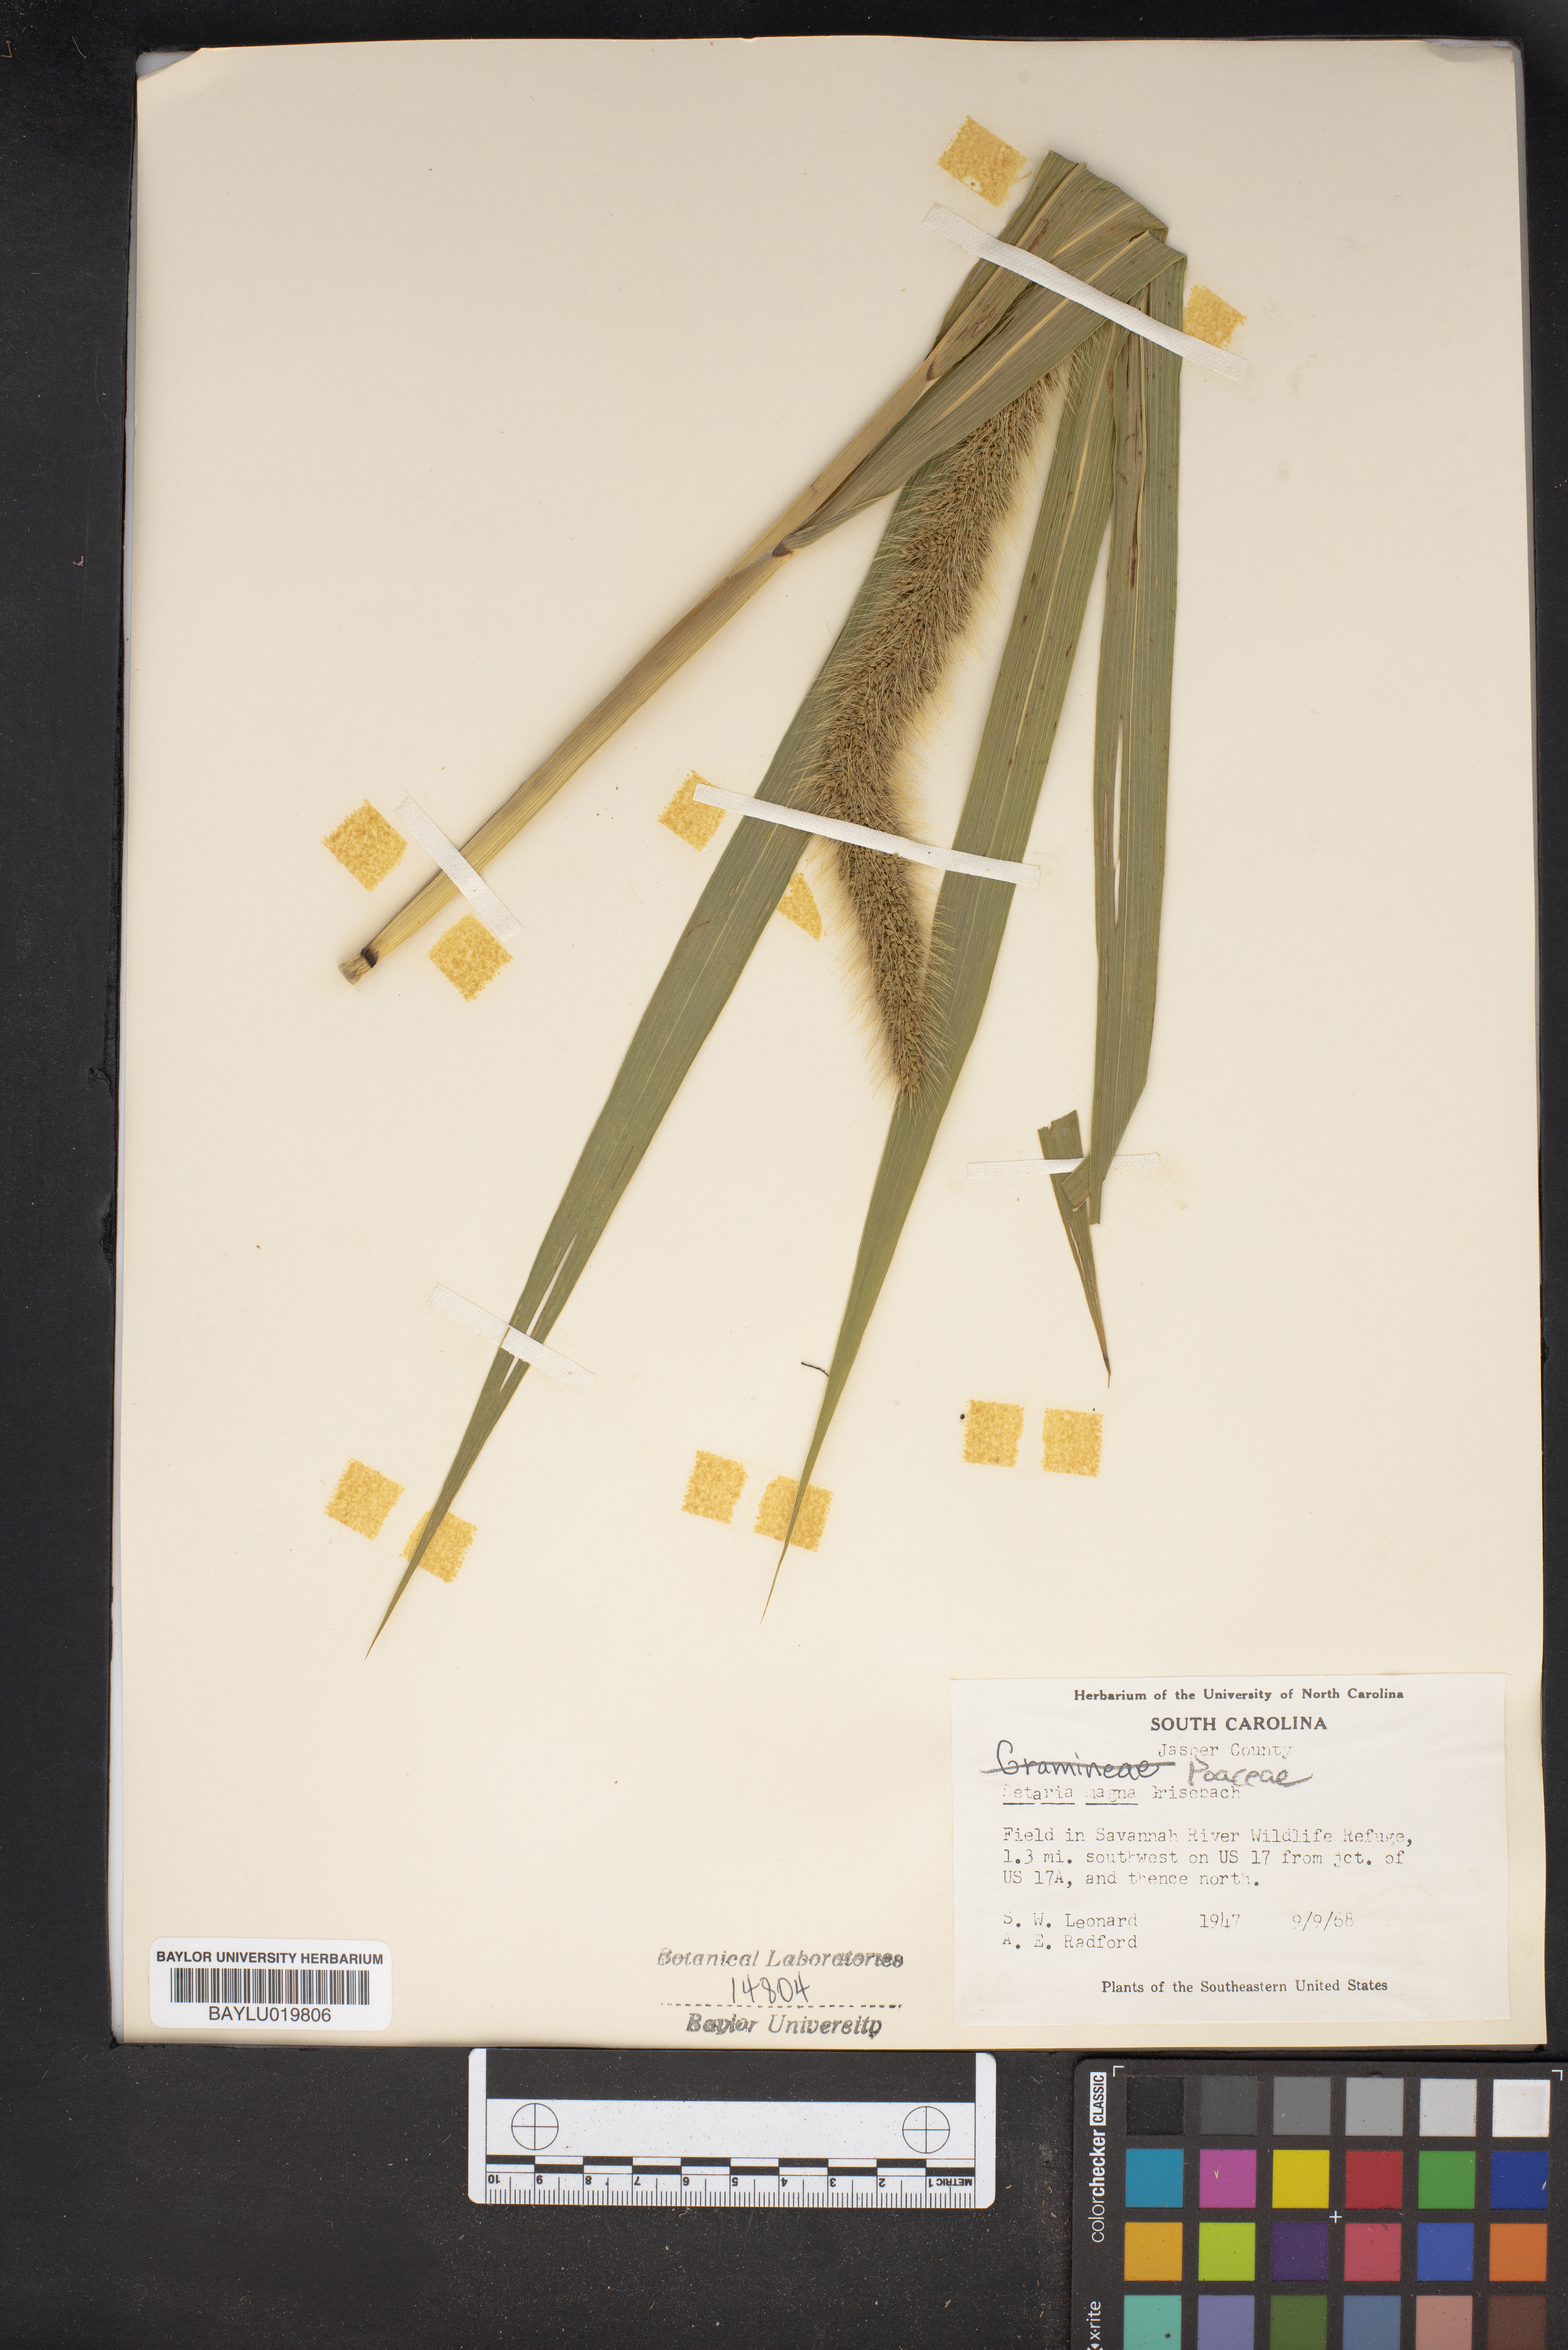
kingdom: Plantae
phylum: Tracheophyta
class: Liliopsida
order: Poales
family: Poaceae
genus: Setaria
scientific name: Setaria magna
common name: Giant bristle grass
